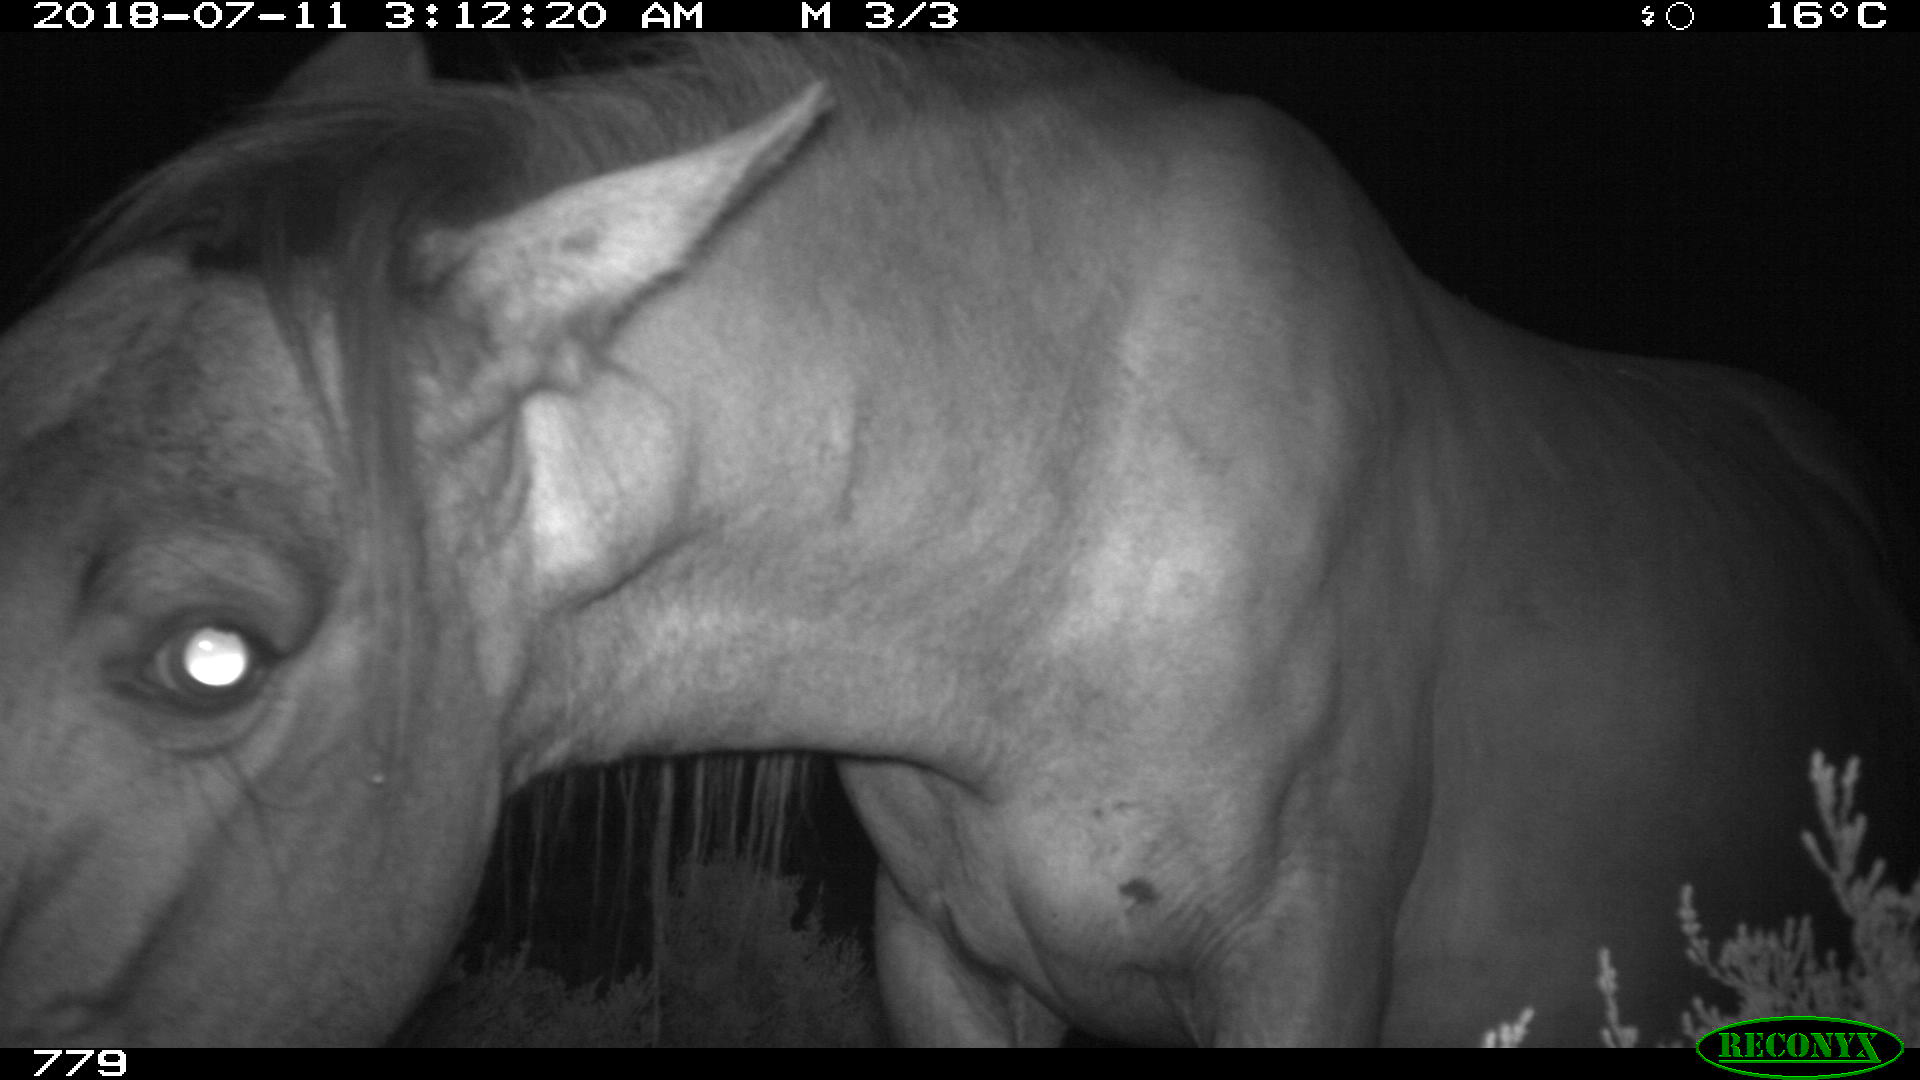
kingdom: Animalia
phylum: Chordata
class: Mammalia
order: Perissodactyla
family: Equidae
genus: Equus
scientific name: Equus caballus
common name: Horse
